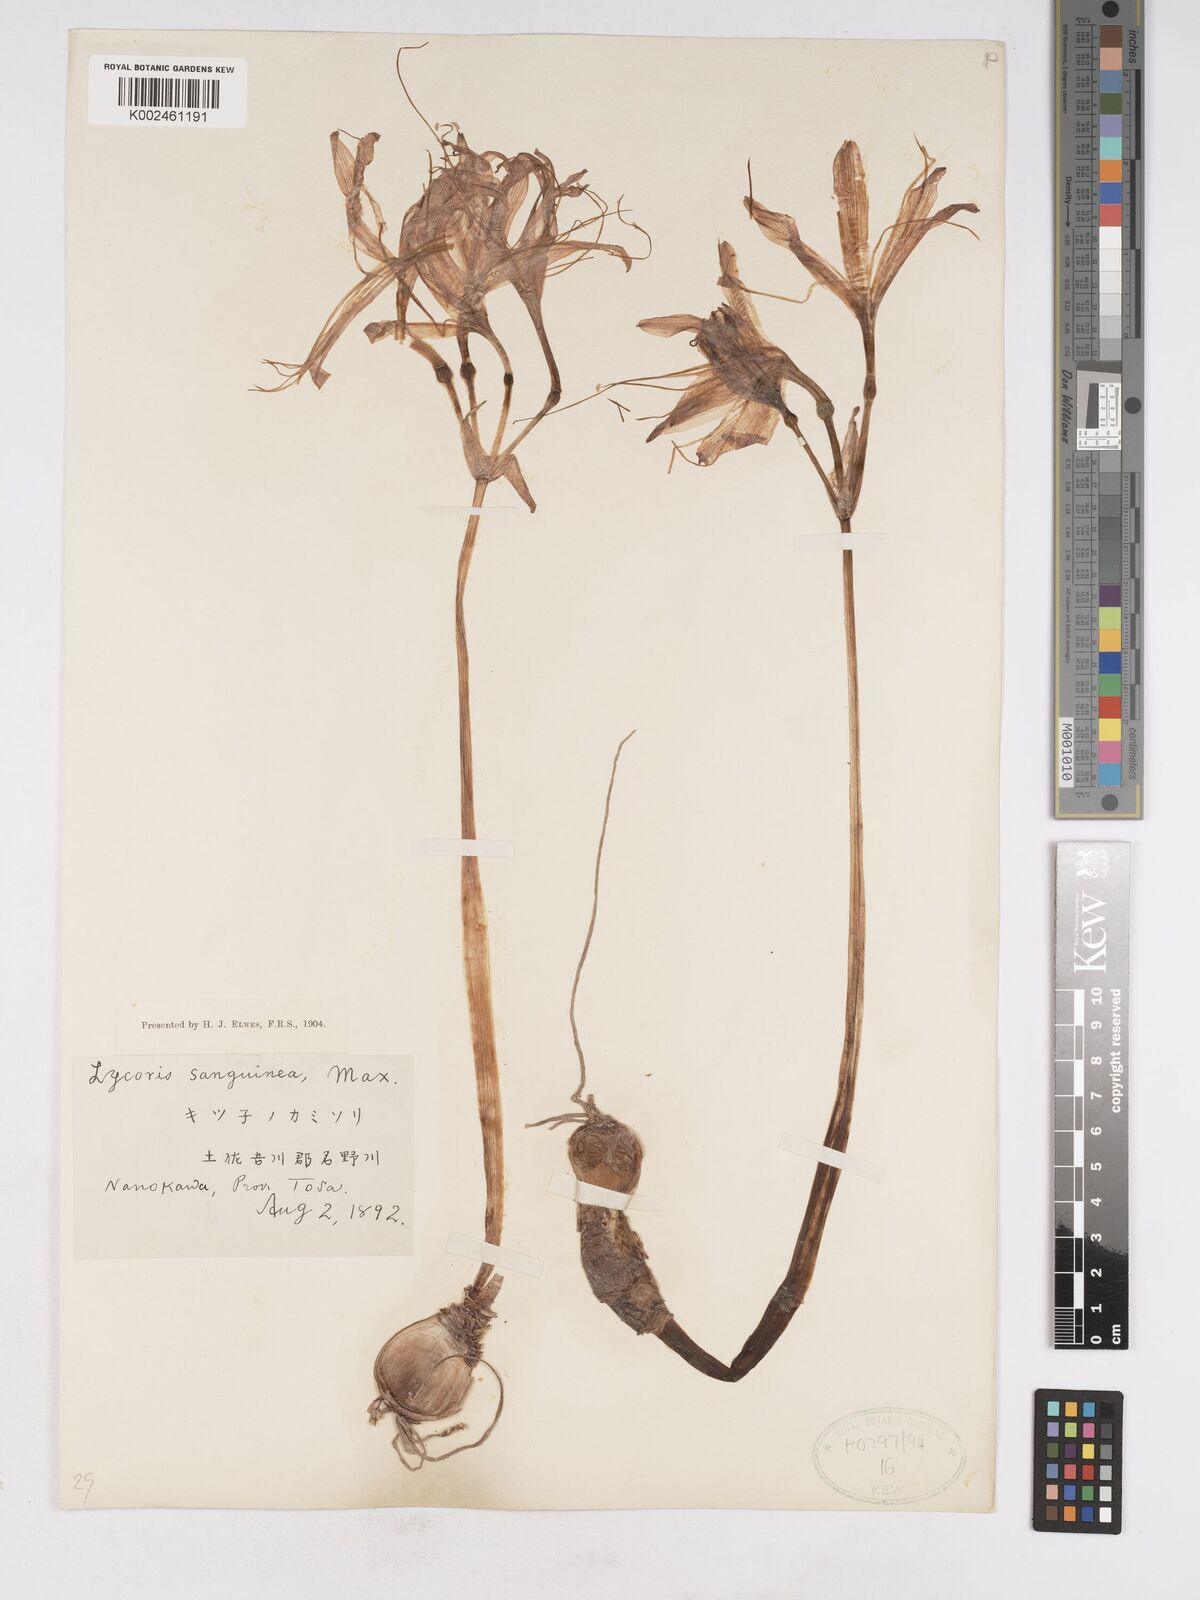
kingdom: Plantae
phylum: Tracheophyta
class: Liliopsida
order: Asparagales
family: Amaryllidaceae
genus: Lycoris
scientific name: Lycoris sanguinea
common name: Spider-lily
